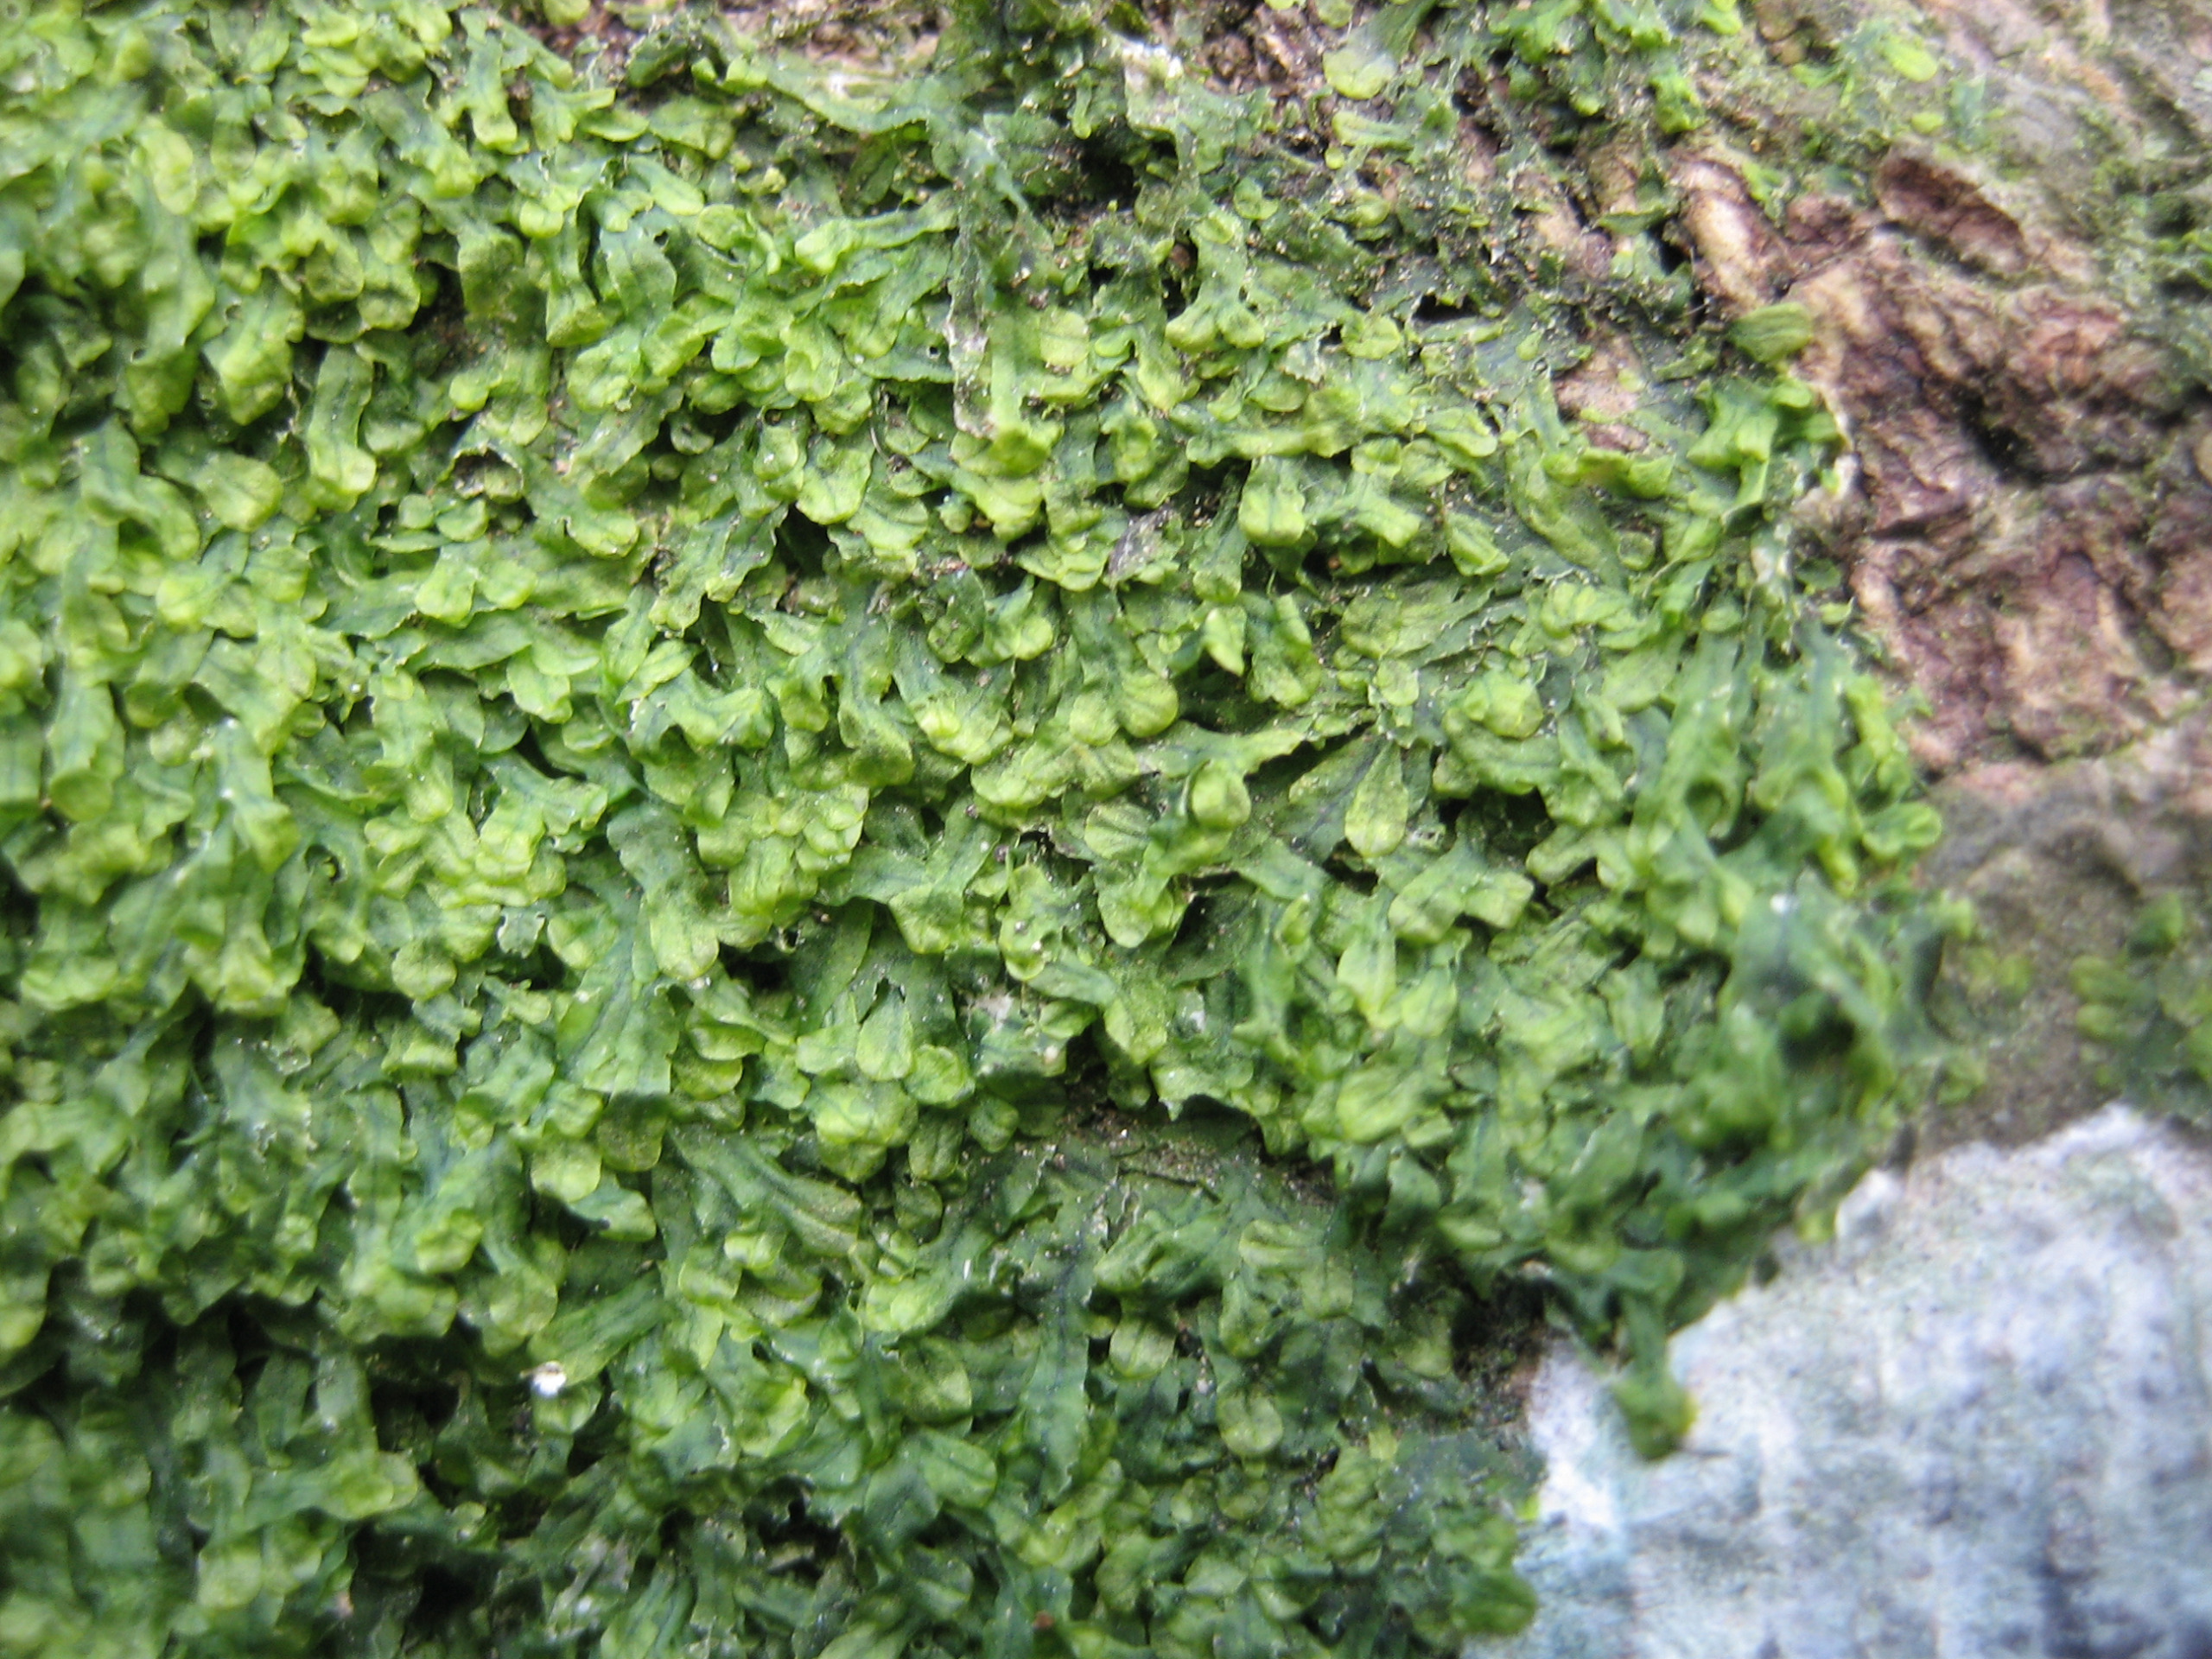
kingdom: Plantae
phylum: Marchantiophyta
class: Jungermanniopsida
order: Metzgeriales
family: Metzgeriaceae
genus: Metzgeria
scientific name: Metzgeria furcata
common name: Almindelig gaffelløv
